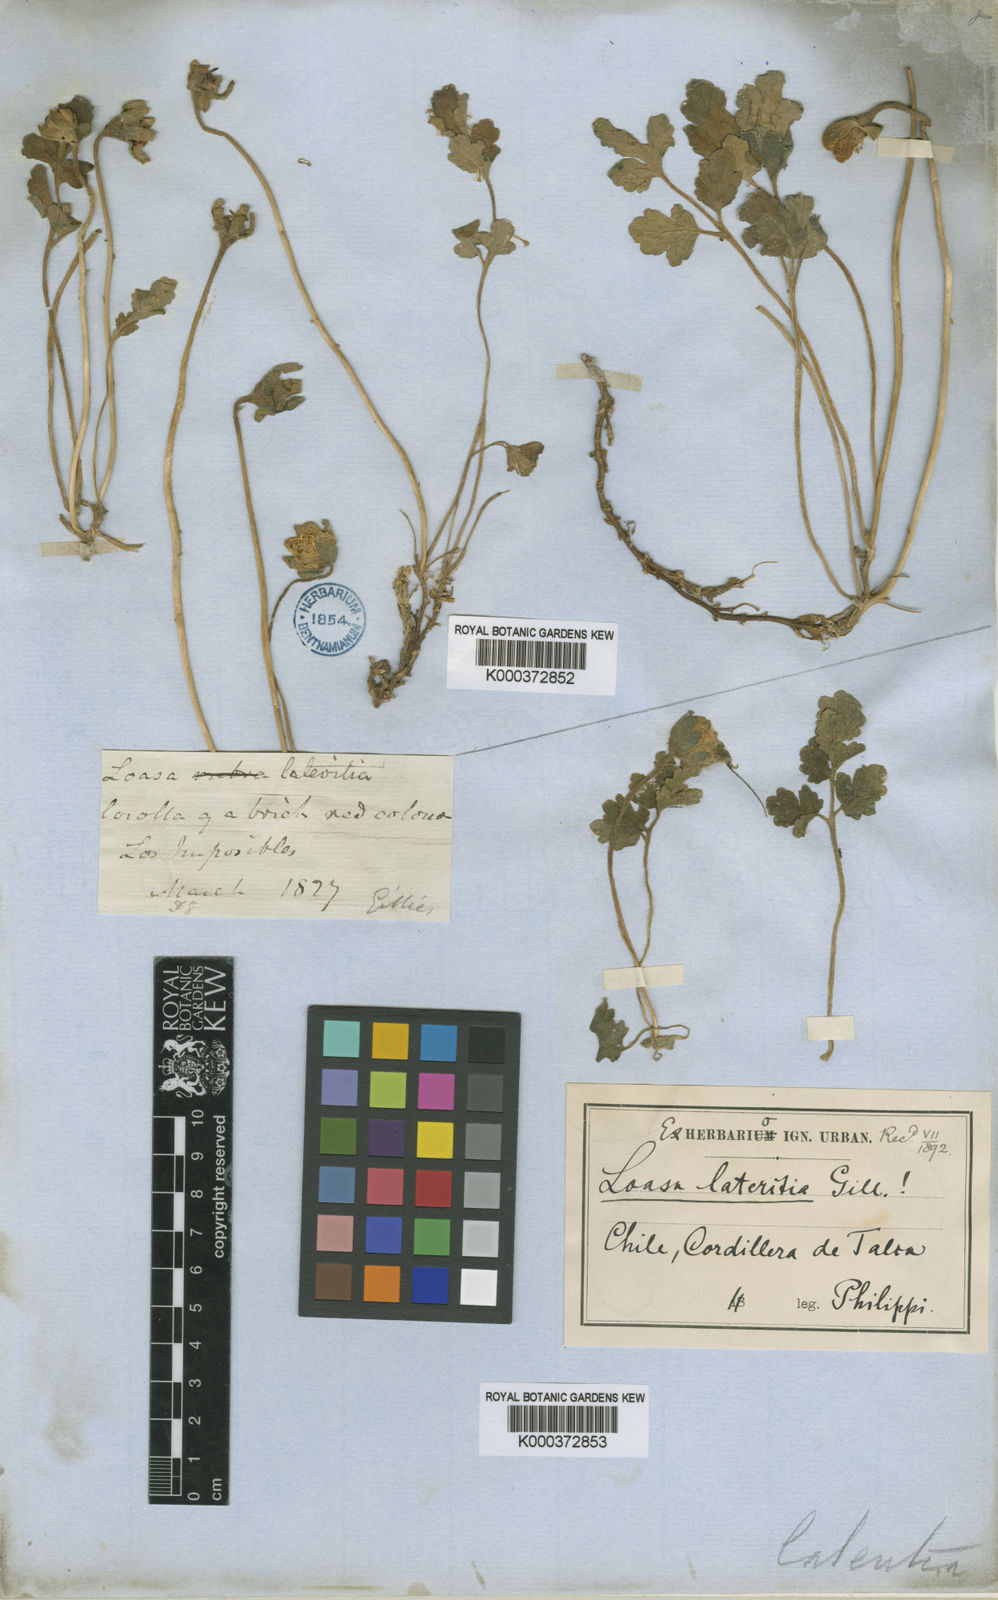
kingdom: Plantae
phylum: Tracheophyta
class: Magnoliopsida
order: Cornales
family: Loasaceae
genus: Grausa
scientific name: Grausa lateritia
